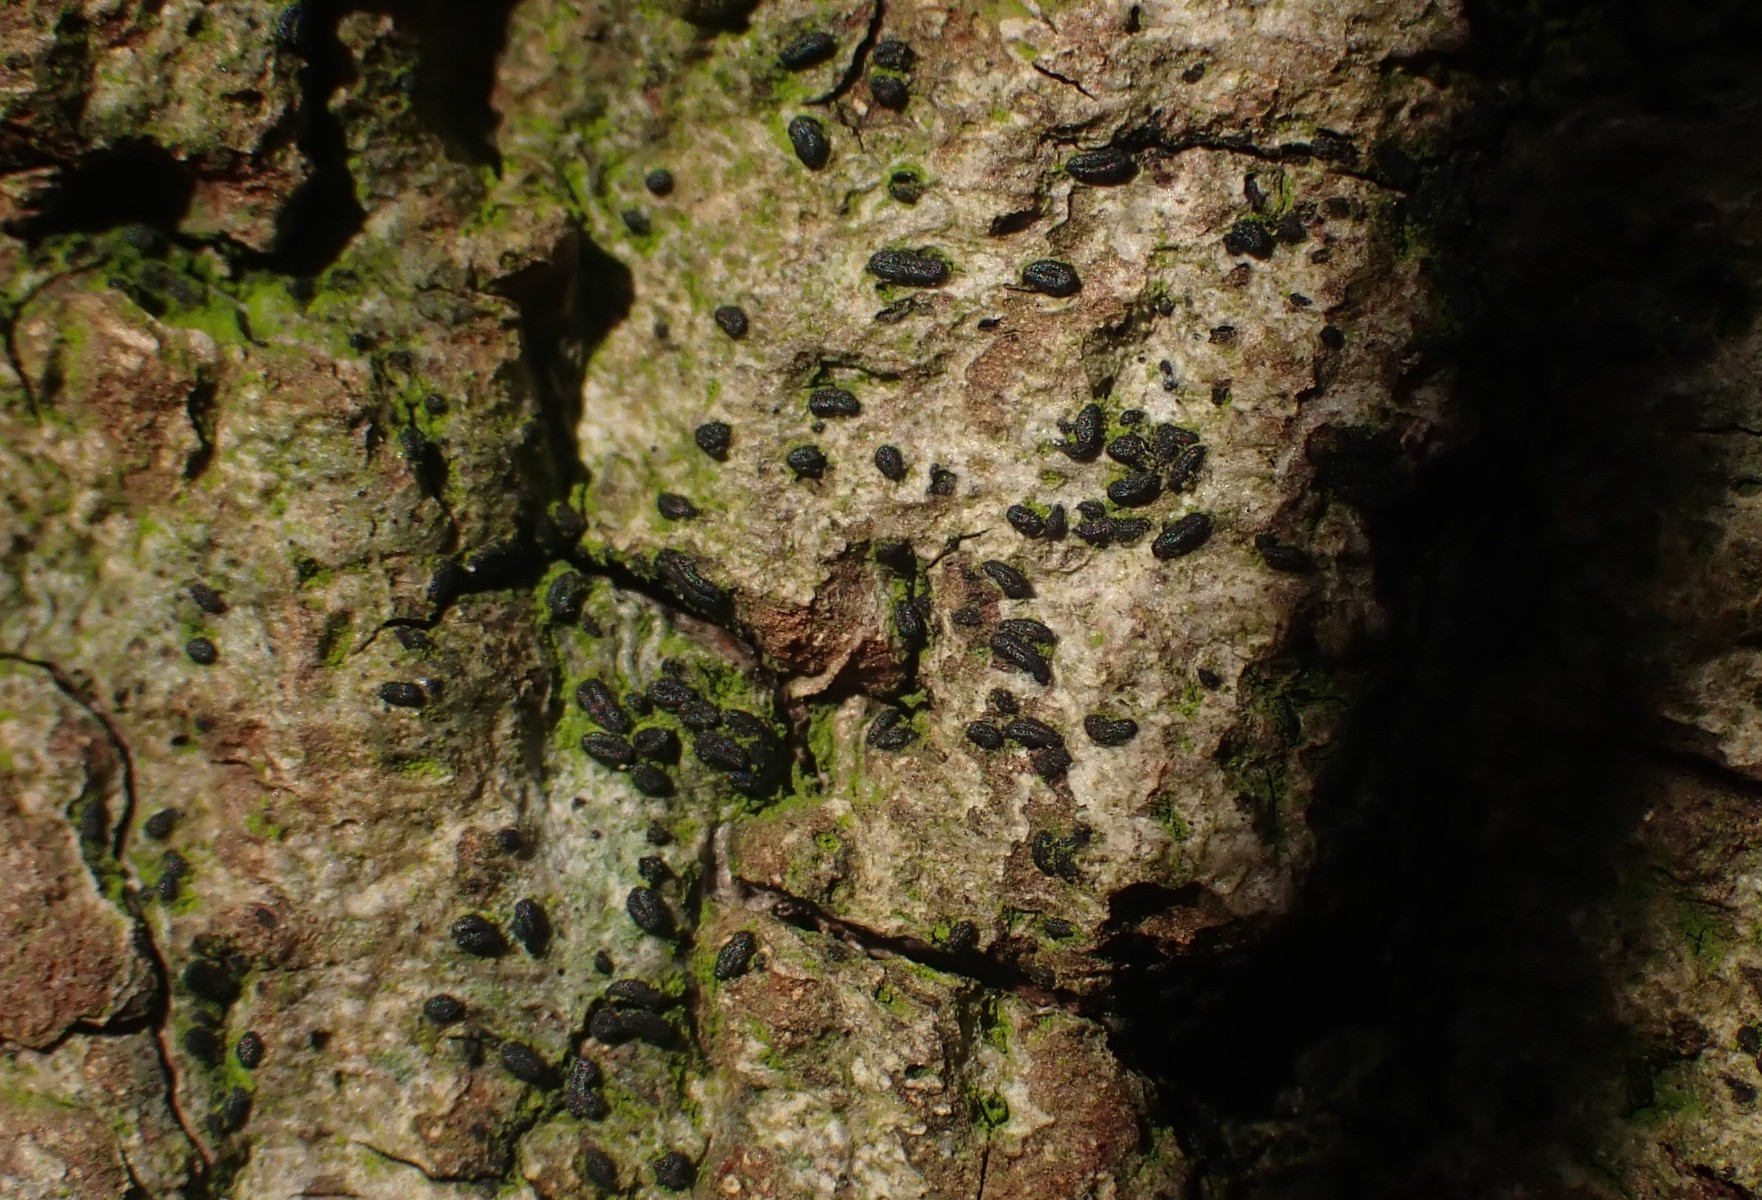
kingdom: Fungi
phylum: Ascomycota
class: Dothideomycetes
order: Hysteriales
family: Hysteriaceae
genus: Hysterium
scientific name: Hysterium acuminatum
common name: almindelig kulmund
